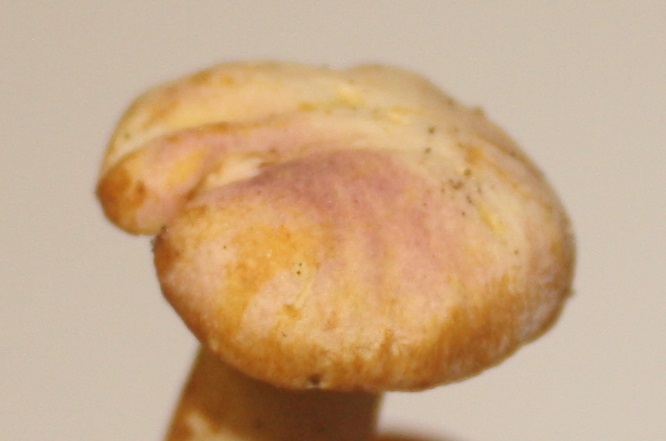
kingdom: Fungi
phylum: Basidiomycota
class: Agaricomycetes
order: Cantharellales
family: Hydnaceae
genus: Cantharellus
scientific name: Cantharellus amethysteus
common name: ametyst-kantarel
